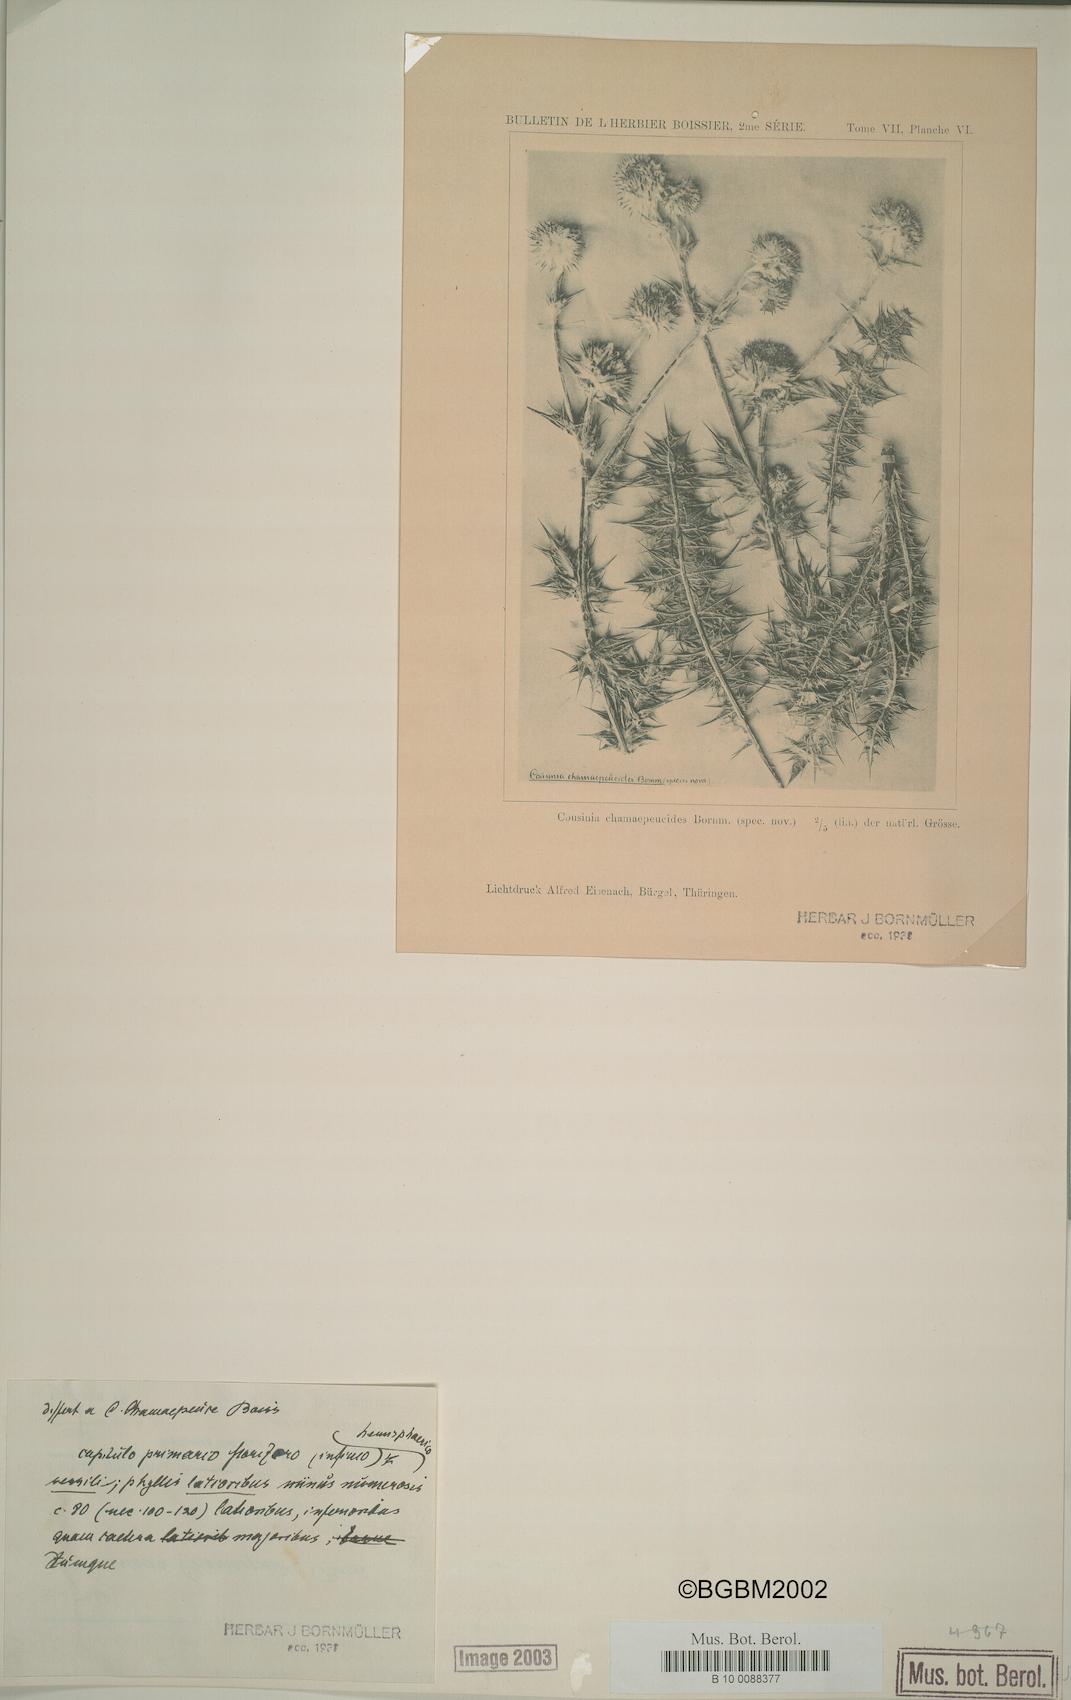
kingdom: Plantae
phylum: Tracheophyta
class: Magnoliopsida
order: Asterales
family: Asteraceae
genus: Cousinia
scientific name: Cousinia chamaepeuce
